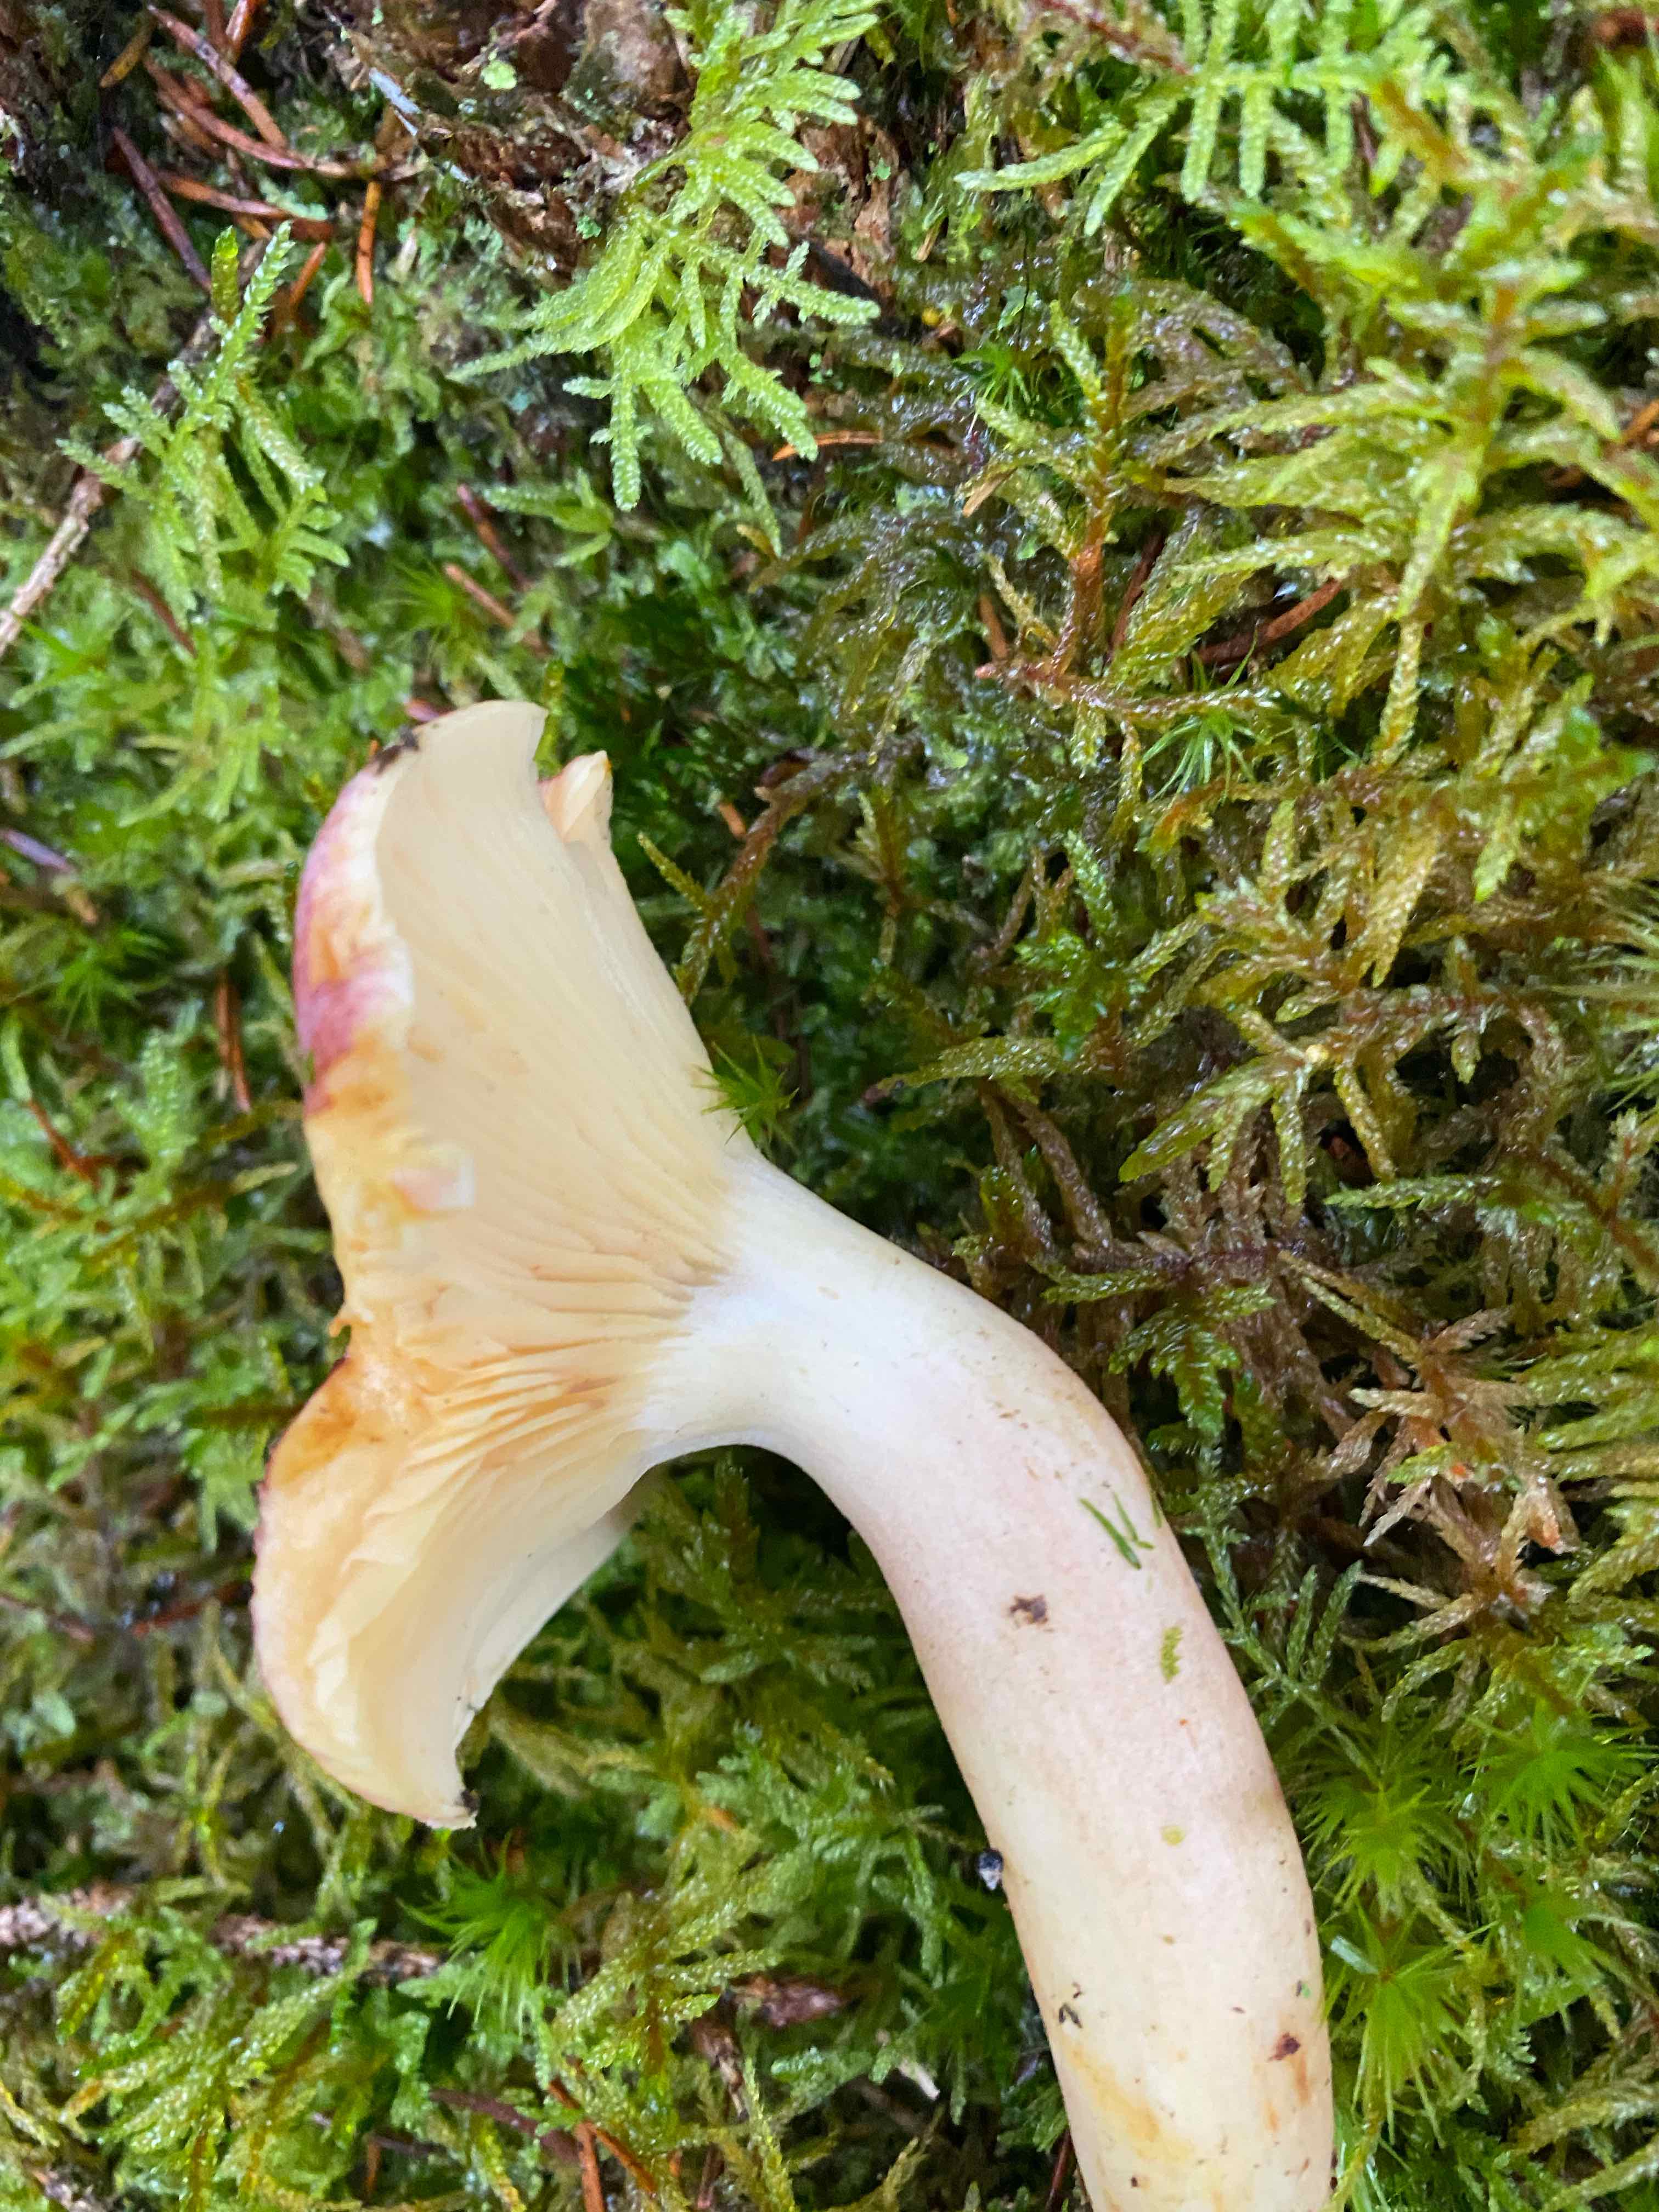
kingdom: Fungi
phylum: Basidiomycota
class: Agaricomycetes
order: Agaricales
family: Tricholomataceae
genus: Tricholomopsis
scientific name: Tricholomopsis rutilans
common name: purpur-væbnerhat
